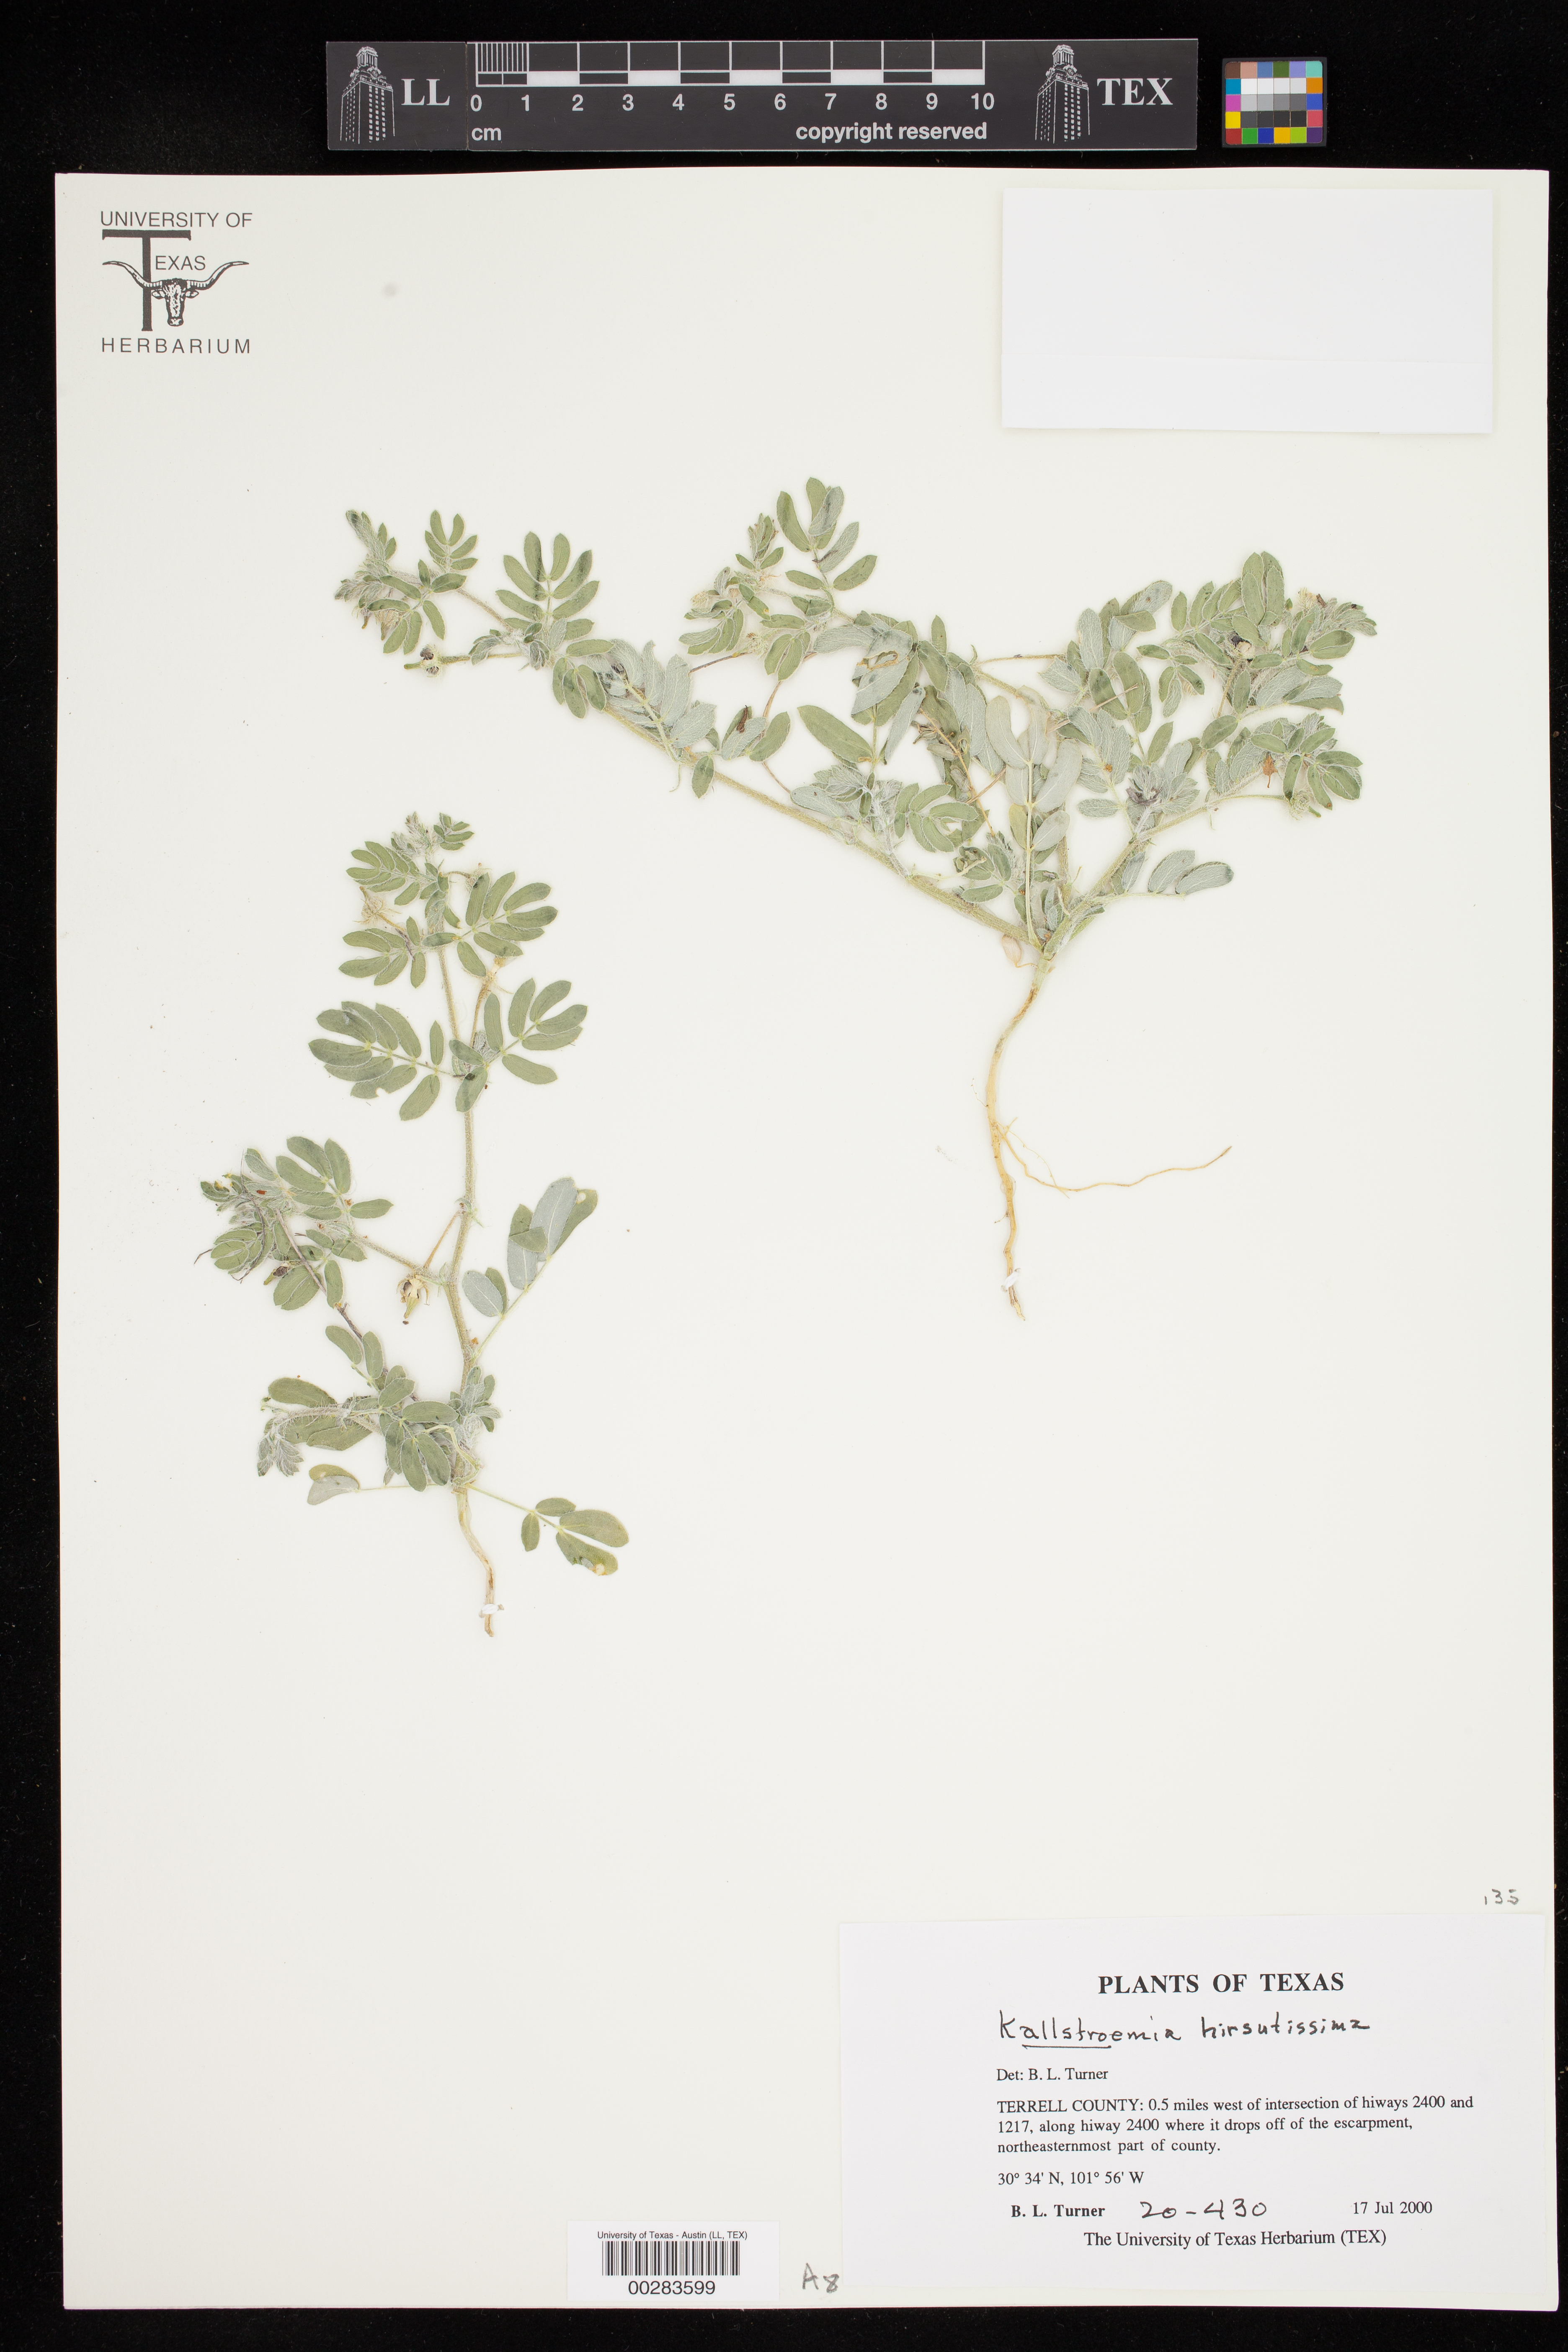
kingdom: Plantae
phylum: Tracheophyta
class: Magnoliopsida
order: Zygophyllales
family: Zygophyllaceae
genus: Kallstroemia
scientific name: Kallstroemia hirsutissima
